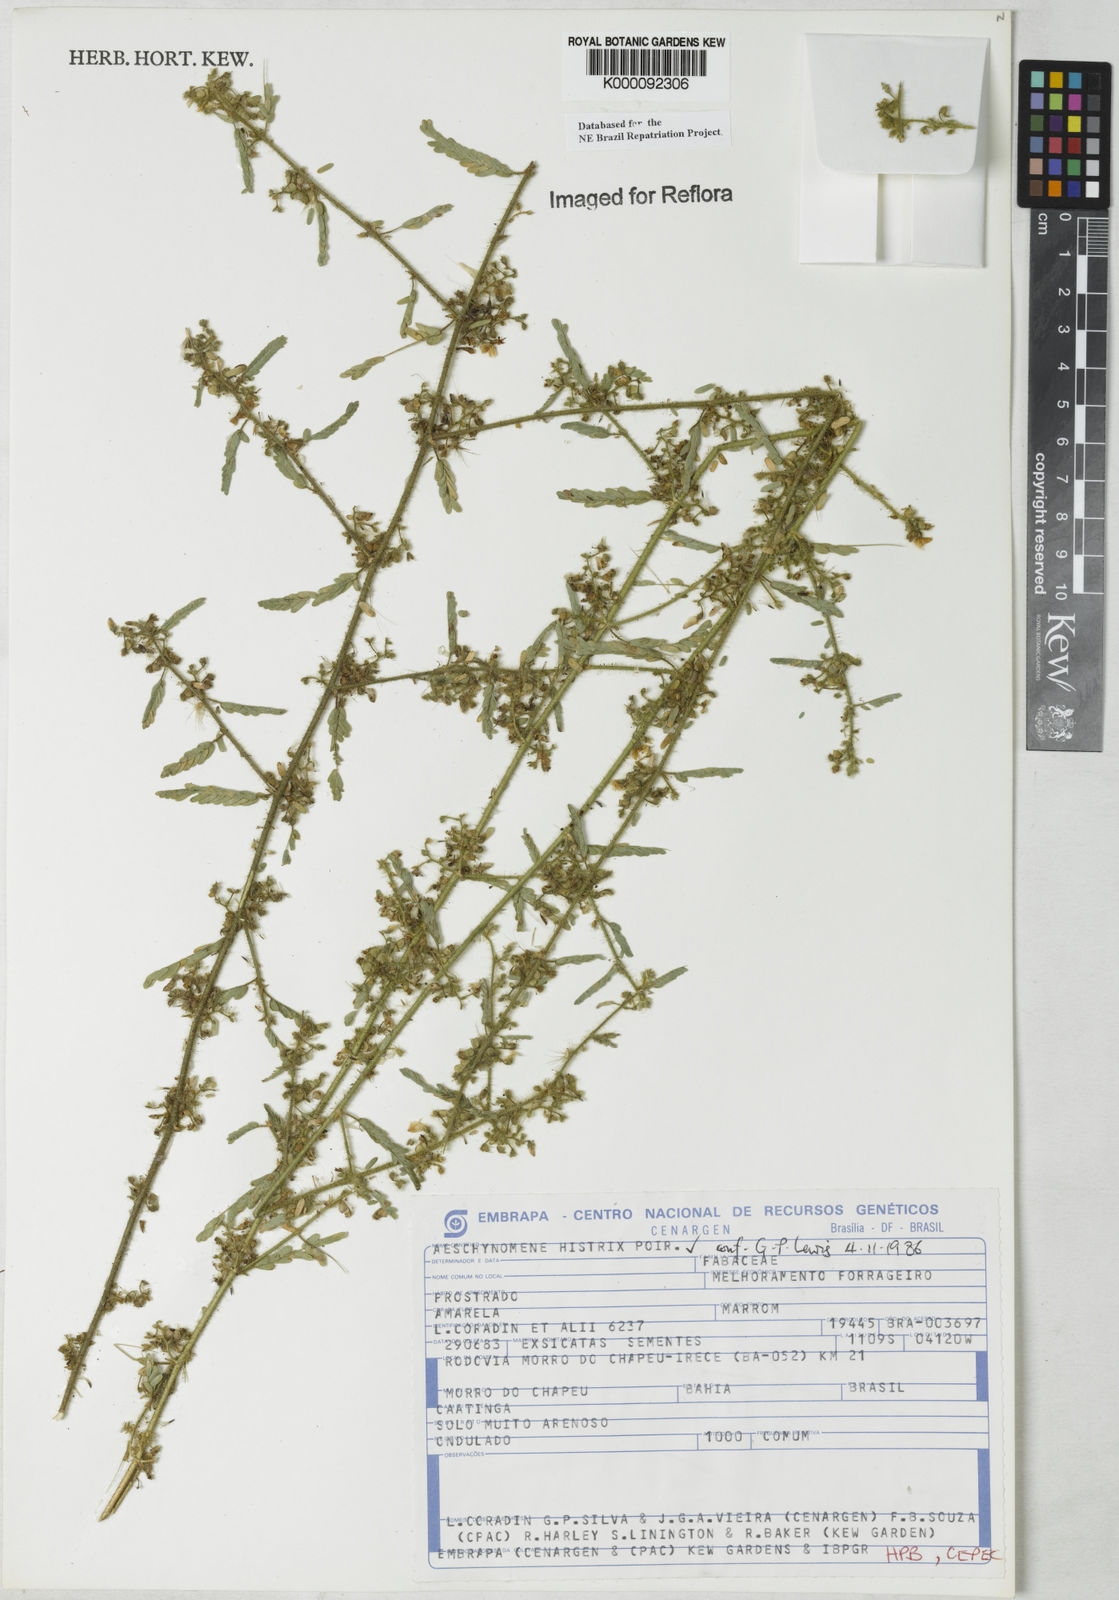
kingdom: Plantae
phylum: Tracheophyta
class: Magnoliopsida
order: Fabales
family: Fabaceae
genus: Ctenodon
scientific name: Ctenodon histrix
